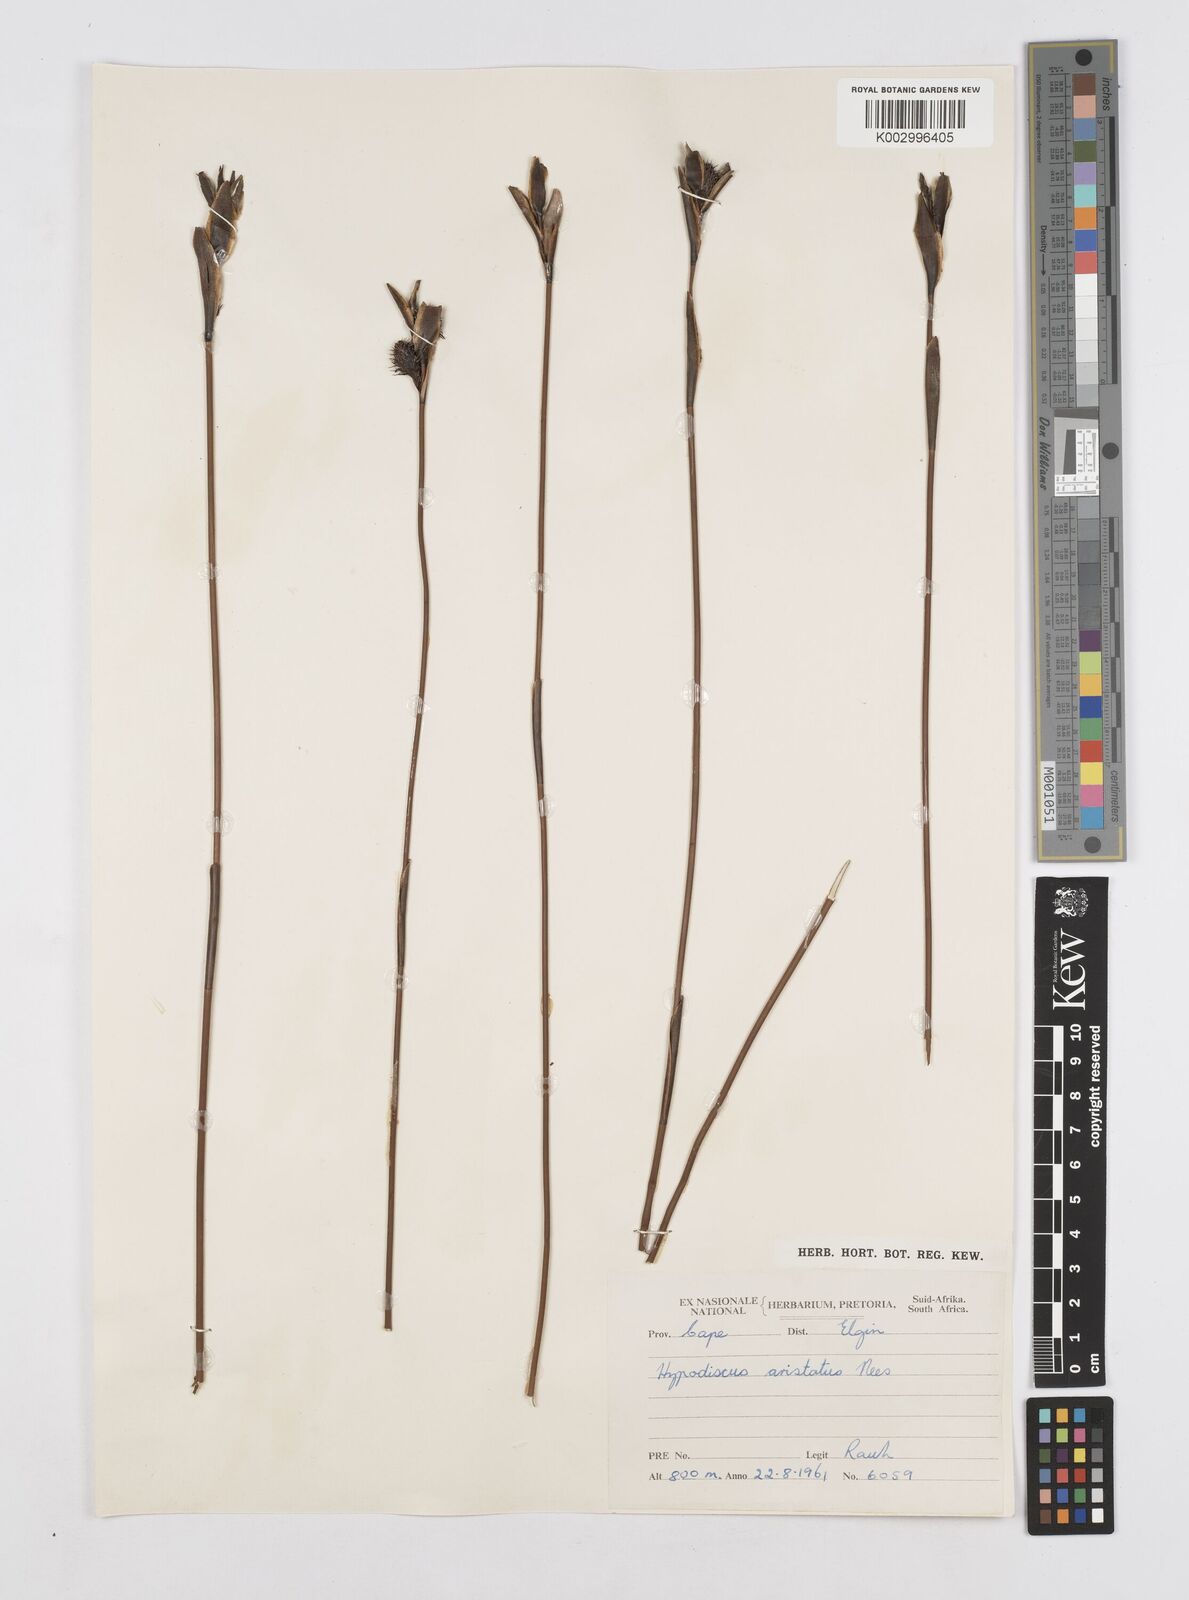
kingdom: Plantae
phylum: Tracheophyta
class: Liliopsida
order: Poales
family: Restionaceae
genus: Hypodiscus
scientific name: Hypodiscus aristatus
